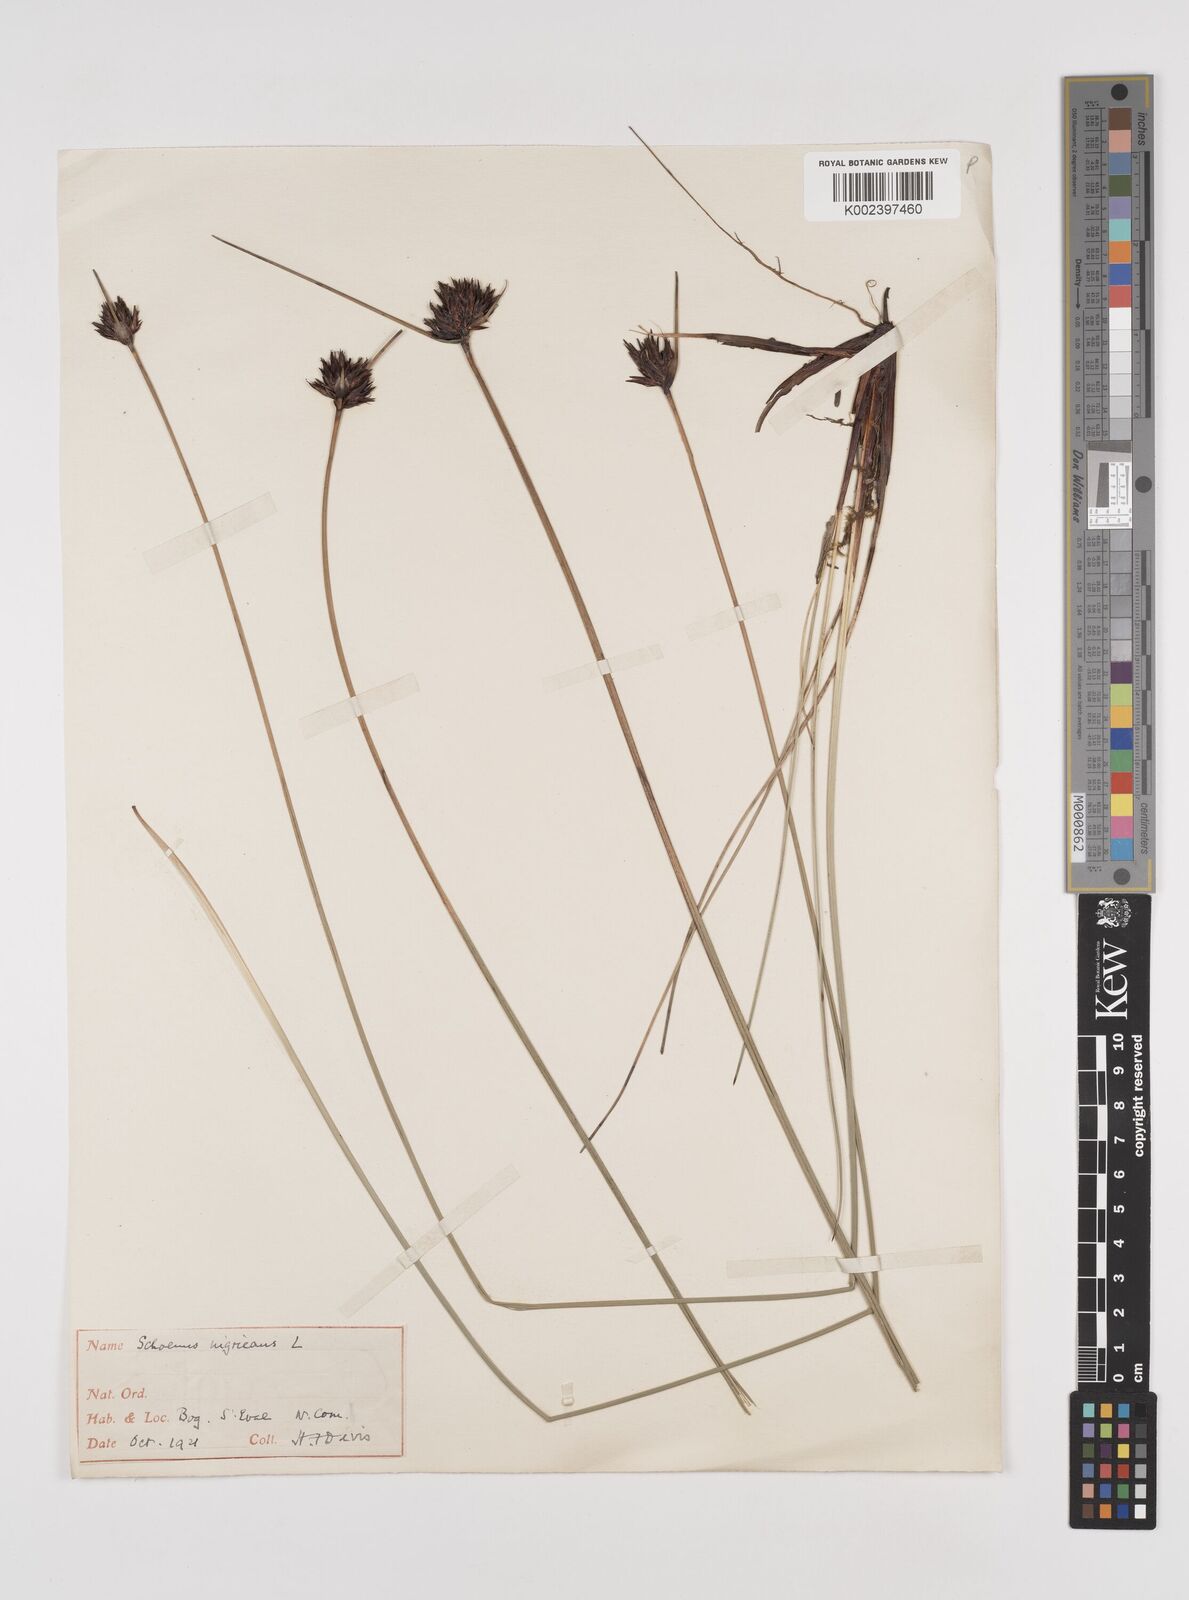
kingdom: Plantae
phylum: Tracheophyta
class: Liliopsida
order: Poales
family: Cyperaceae
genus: Schoenus
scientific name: Schoenus nigricans
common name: Black bog-rush
